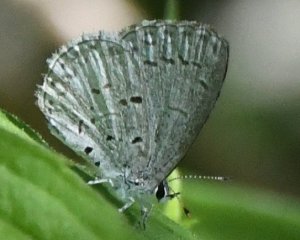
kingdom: Animalia
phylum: Arthropoda
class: Insecta
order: Lepidoptera
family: Lycaenidae
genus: Celastrina
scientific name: Celastrina
